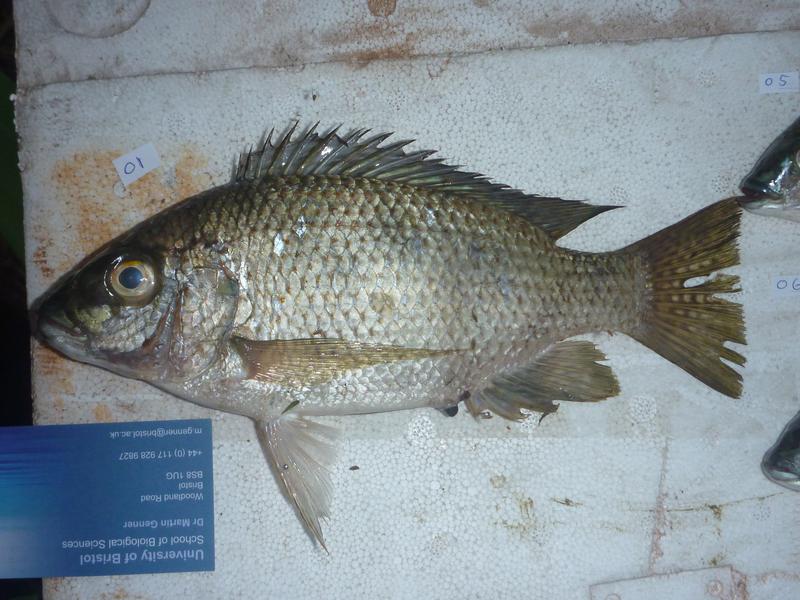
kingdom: Animalia
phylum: Chordata
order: Perciformes
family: Cichlidae
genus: Oreochromis
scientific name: Oreochromis karomo
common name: Karomo
